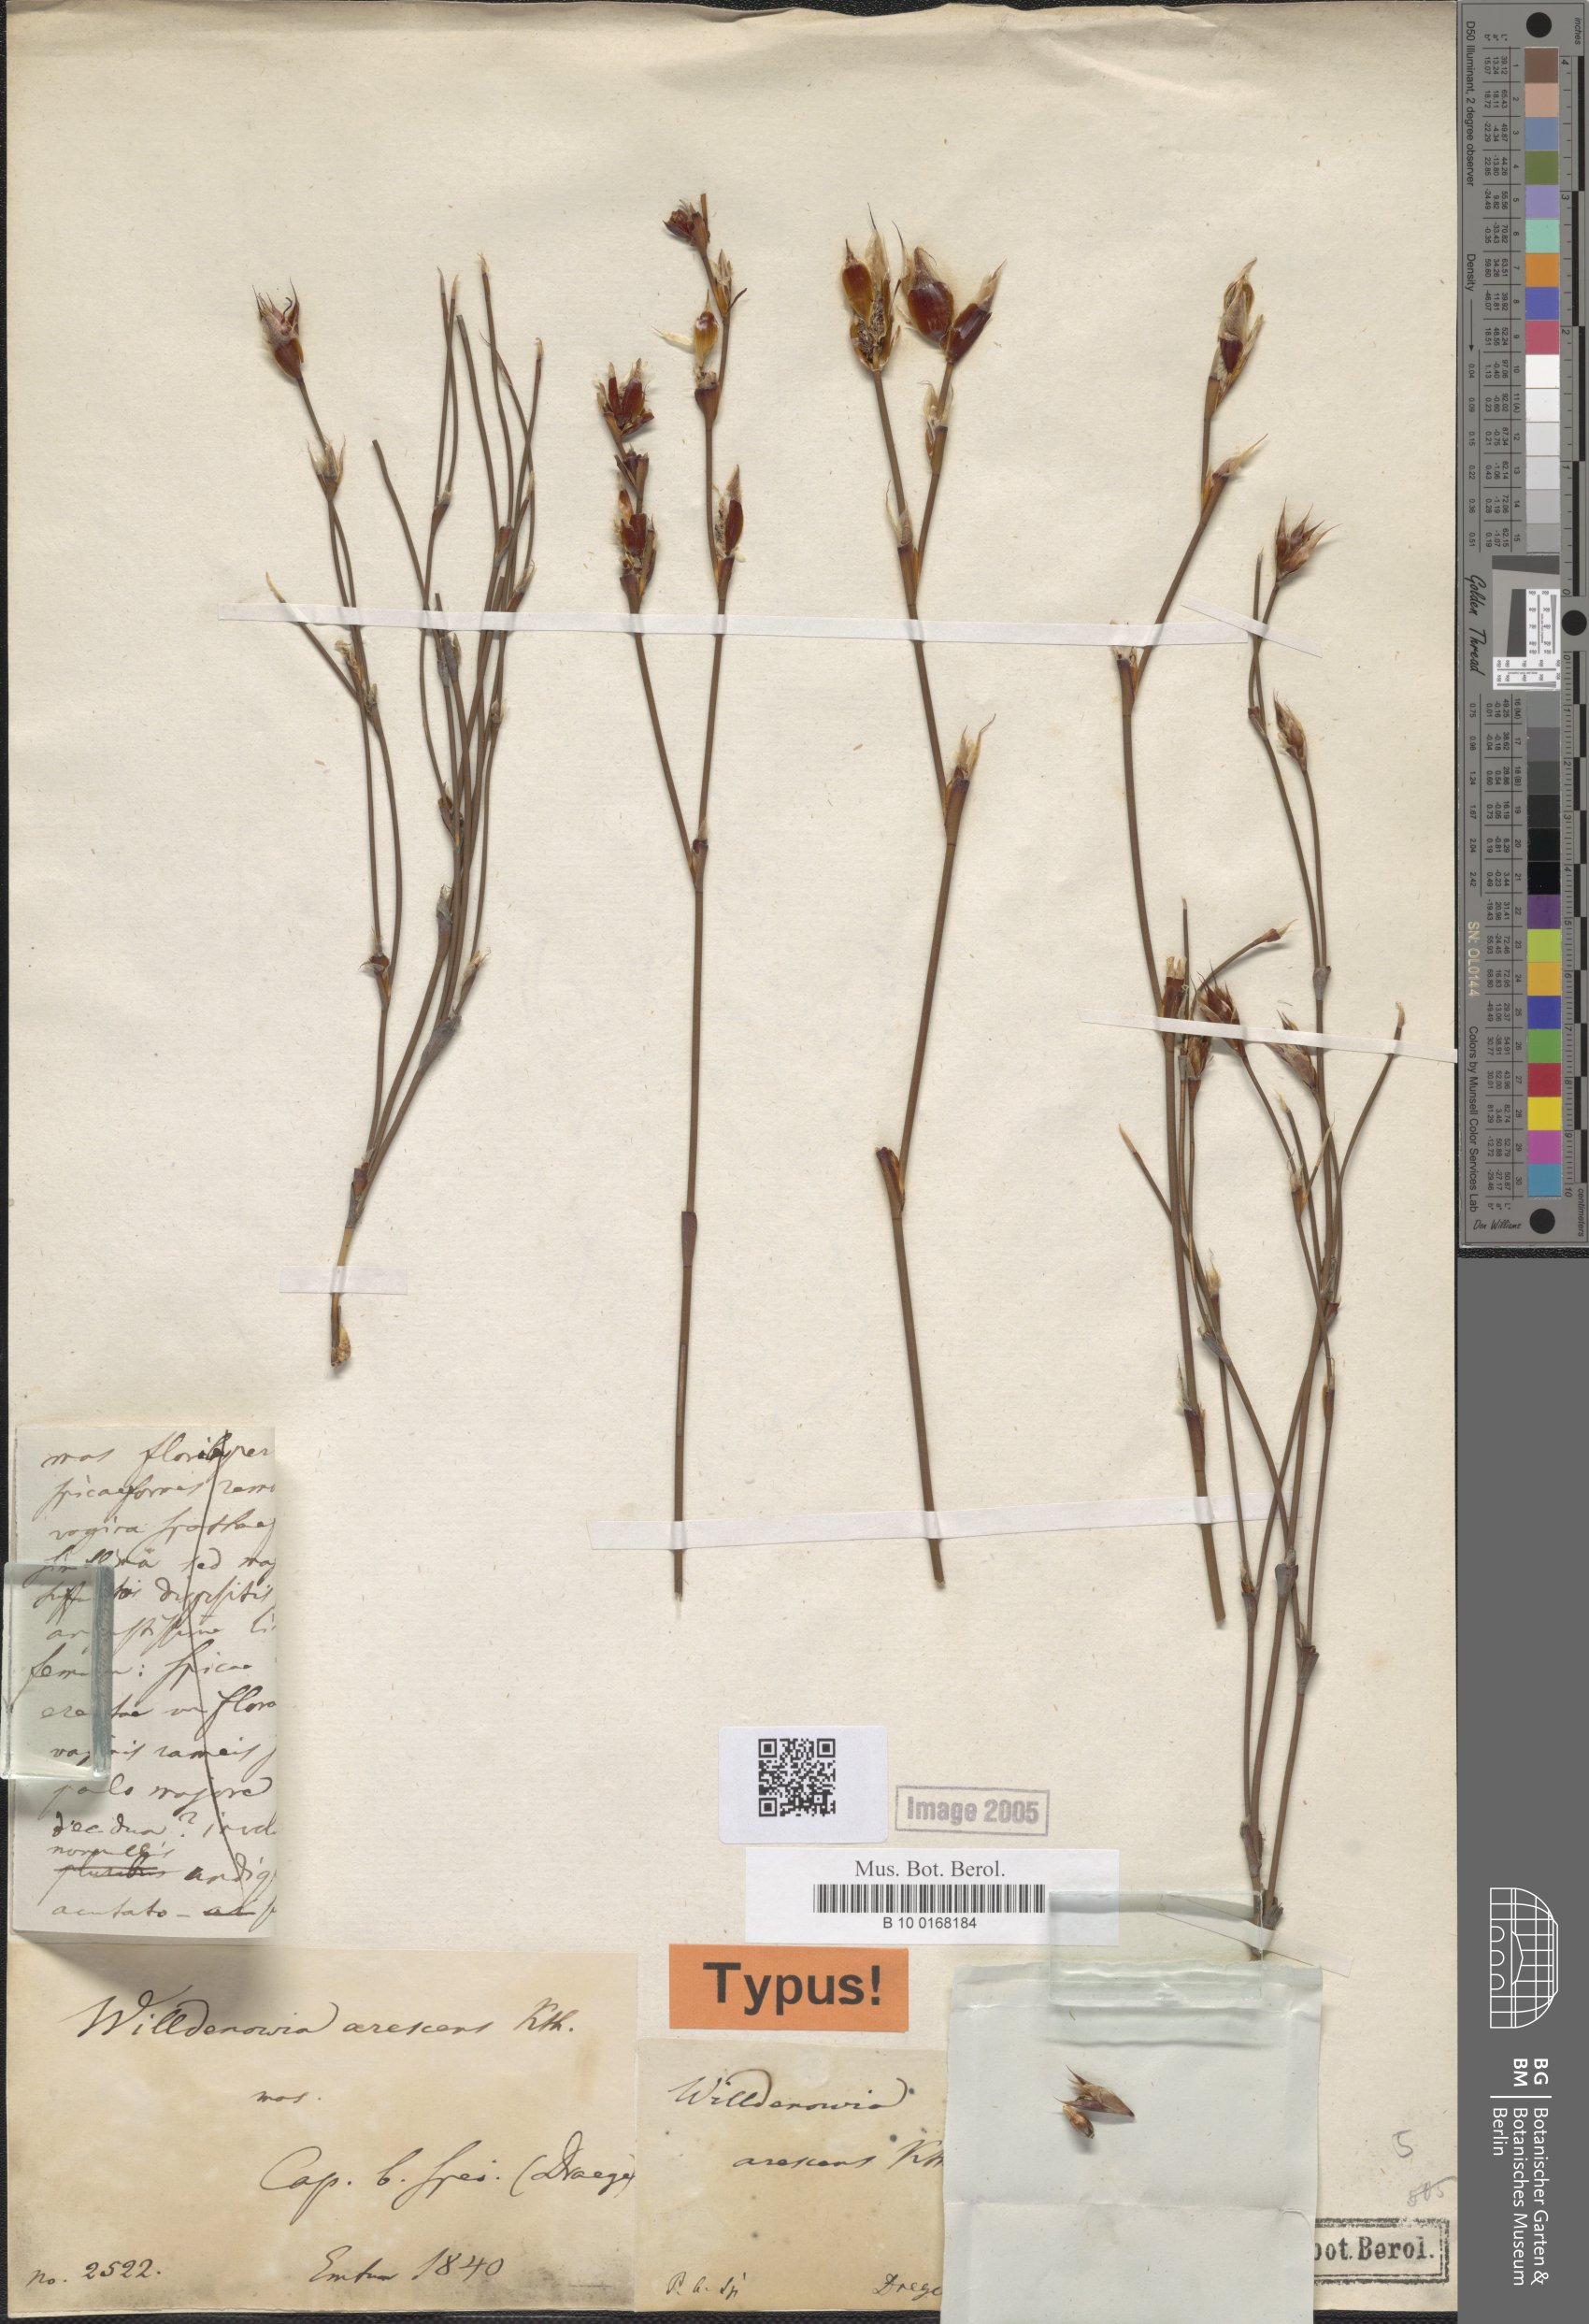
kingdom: Plantae
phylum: Tracheophyta
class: Liliopsida
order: Poales
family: Restionaceae
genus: Willdenowia
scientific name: Willdenowia arescens
